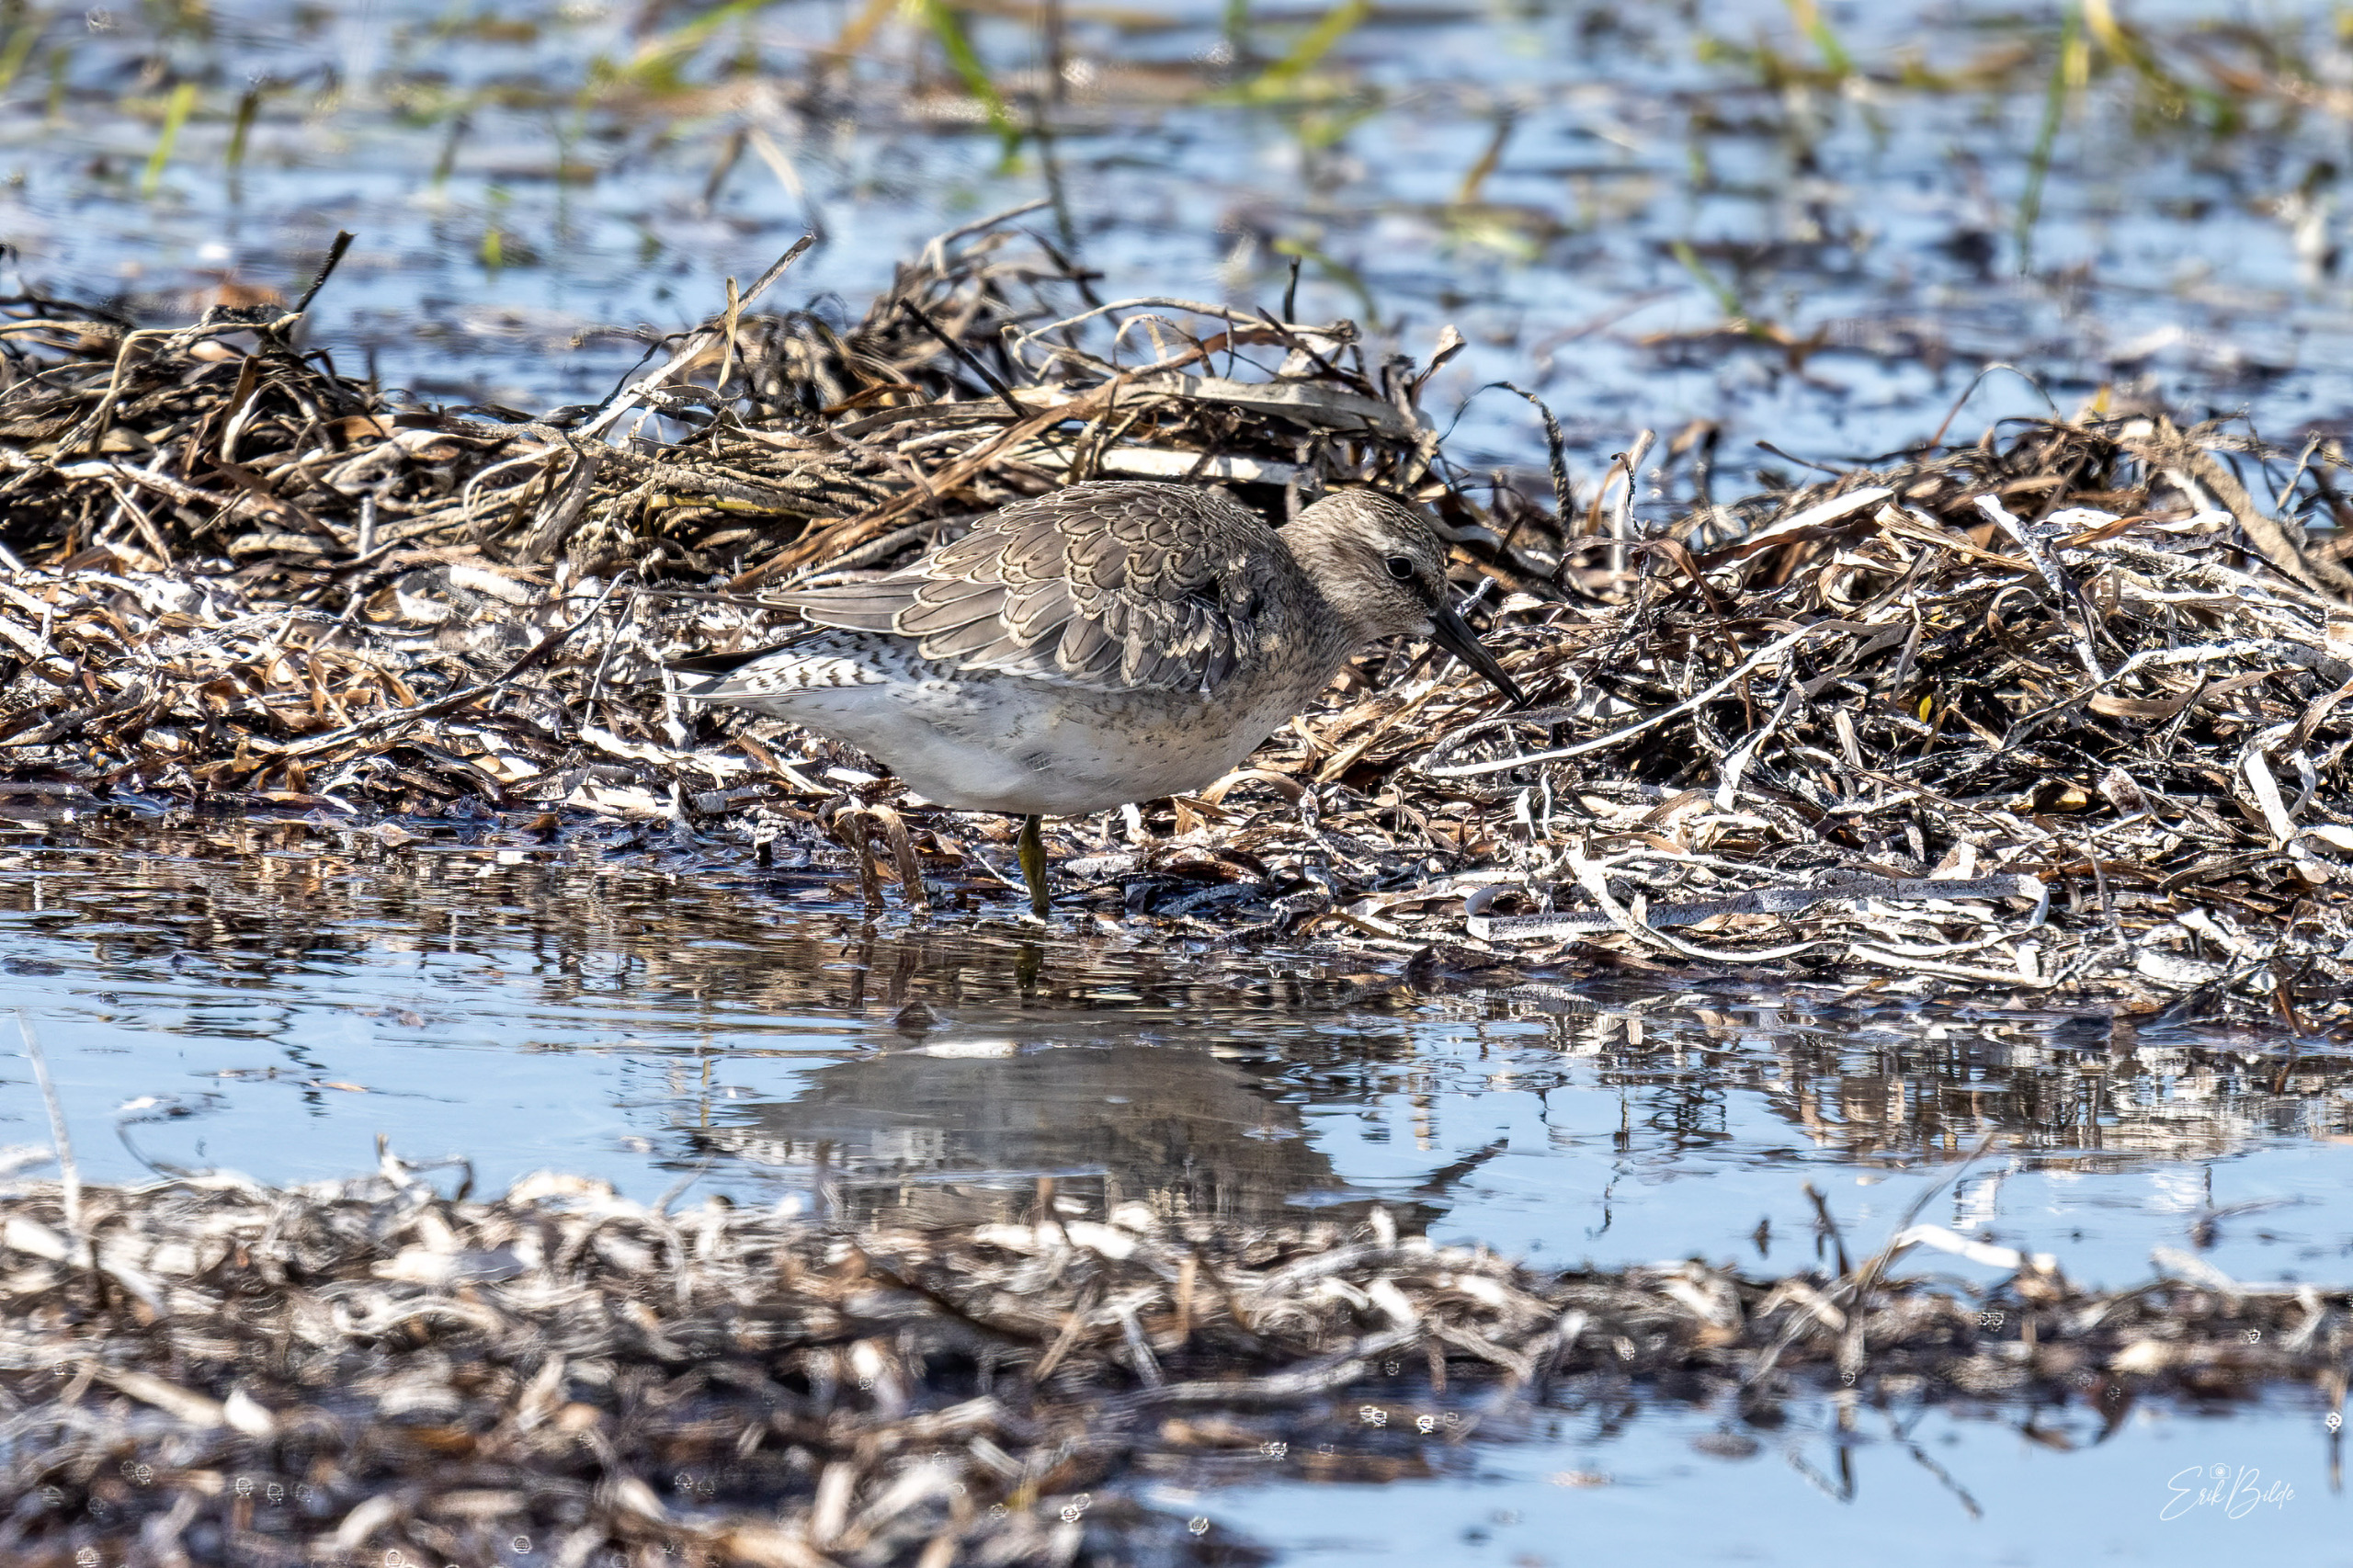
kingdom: Animalia
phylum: Chordata
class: Aves
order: Charadriiformes
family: Scolopacidae
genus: Calidris
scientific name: Calidris canutus
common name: Islandsk ryle
